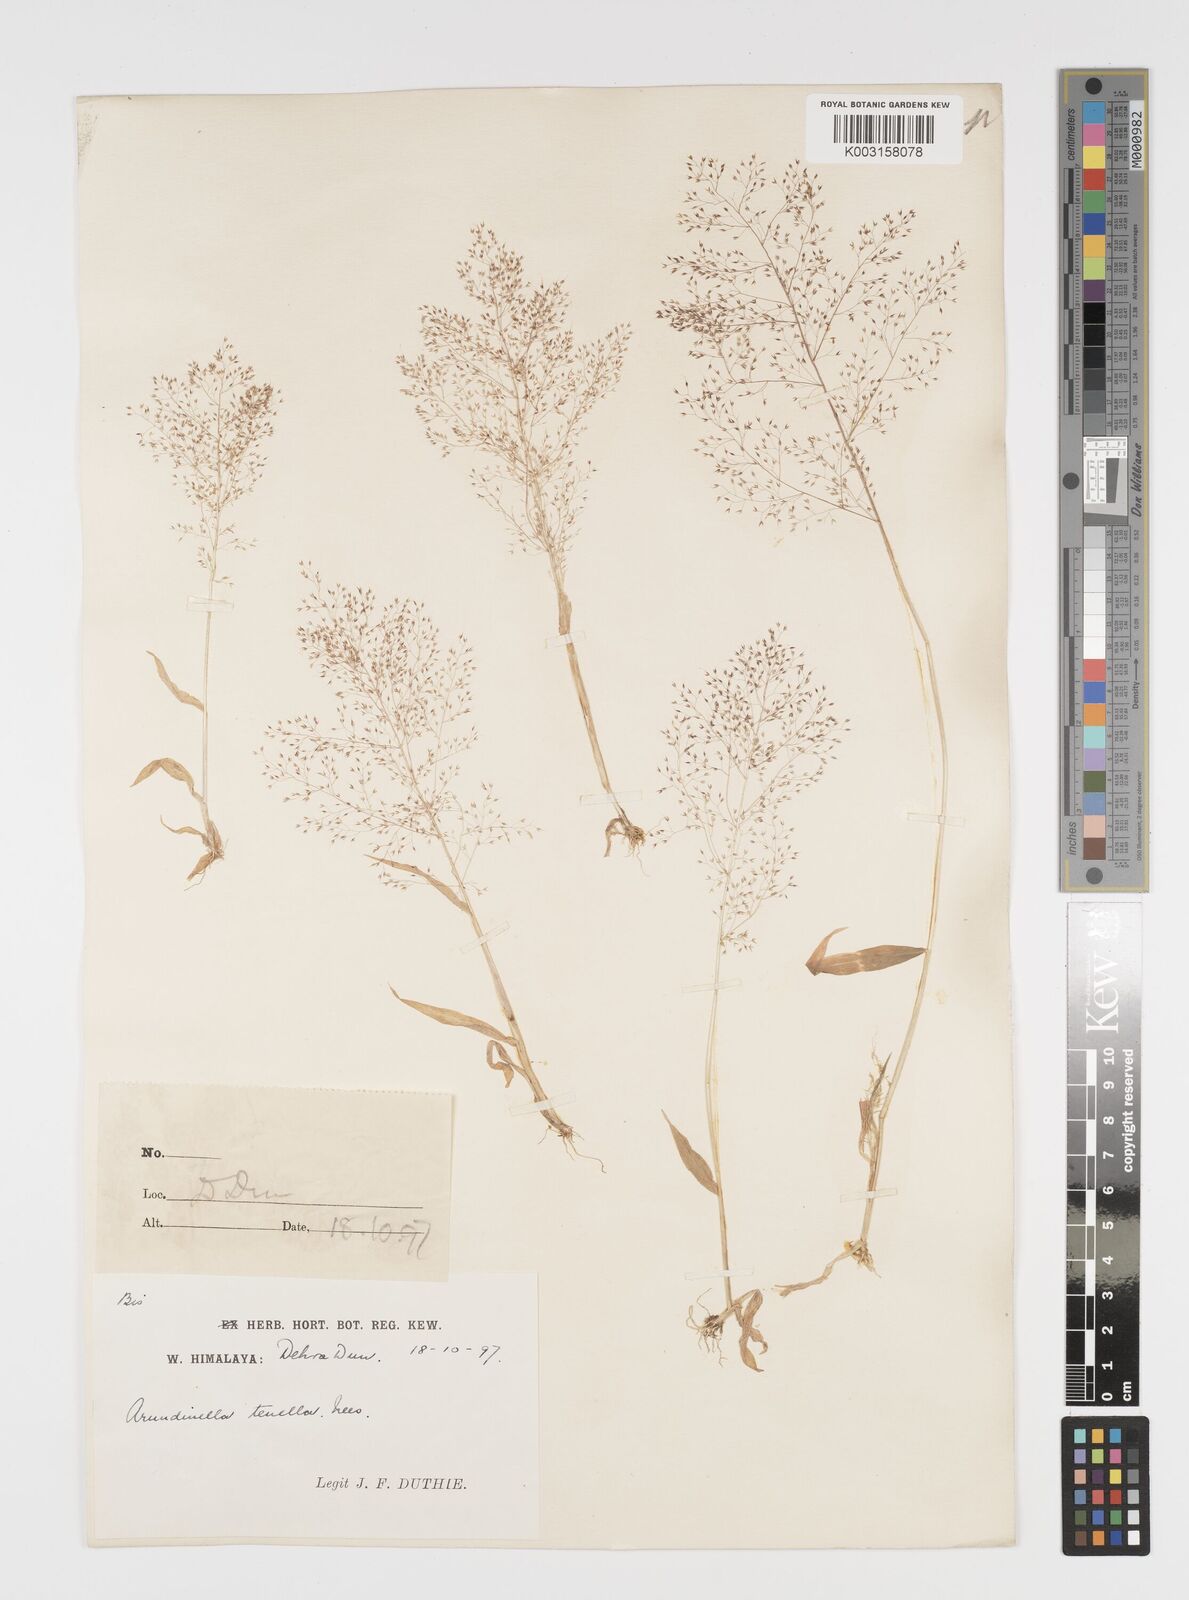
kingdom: Plantae
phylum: Tracheophyta
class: Liliopsida
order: Poales
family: Poaceae
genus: Arundinella
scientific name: Arundinella pumila
